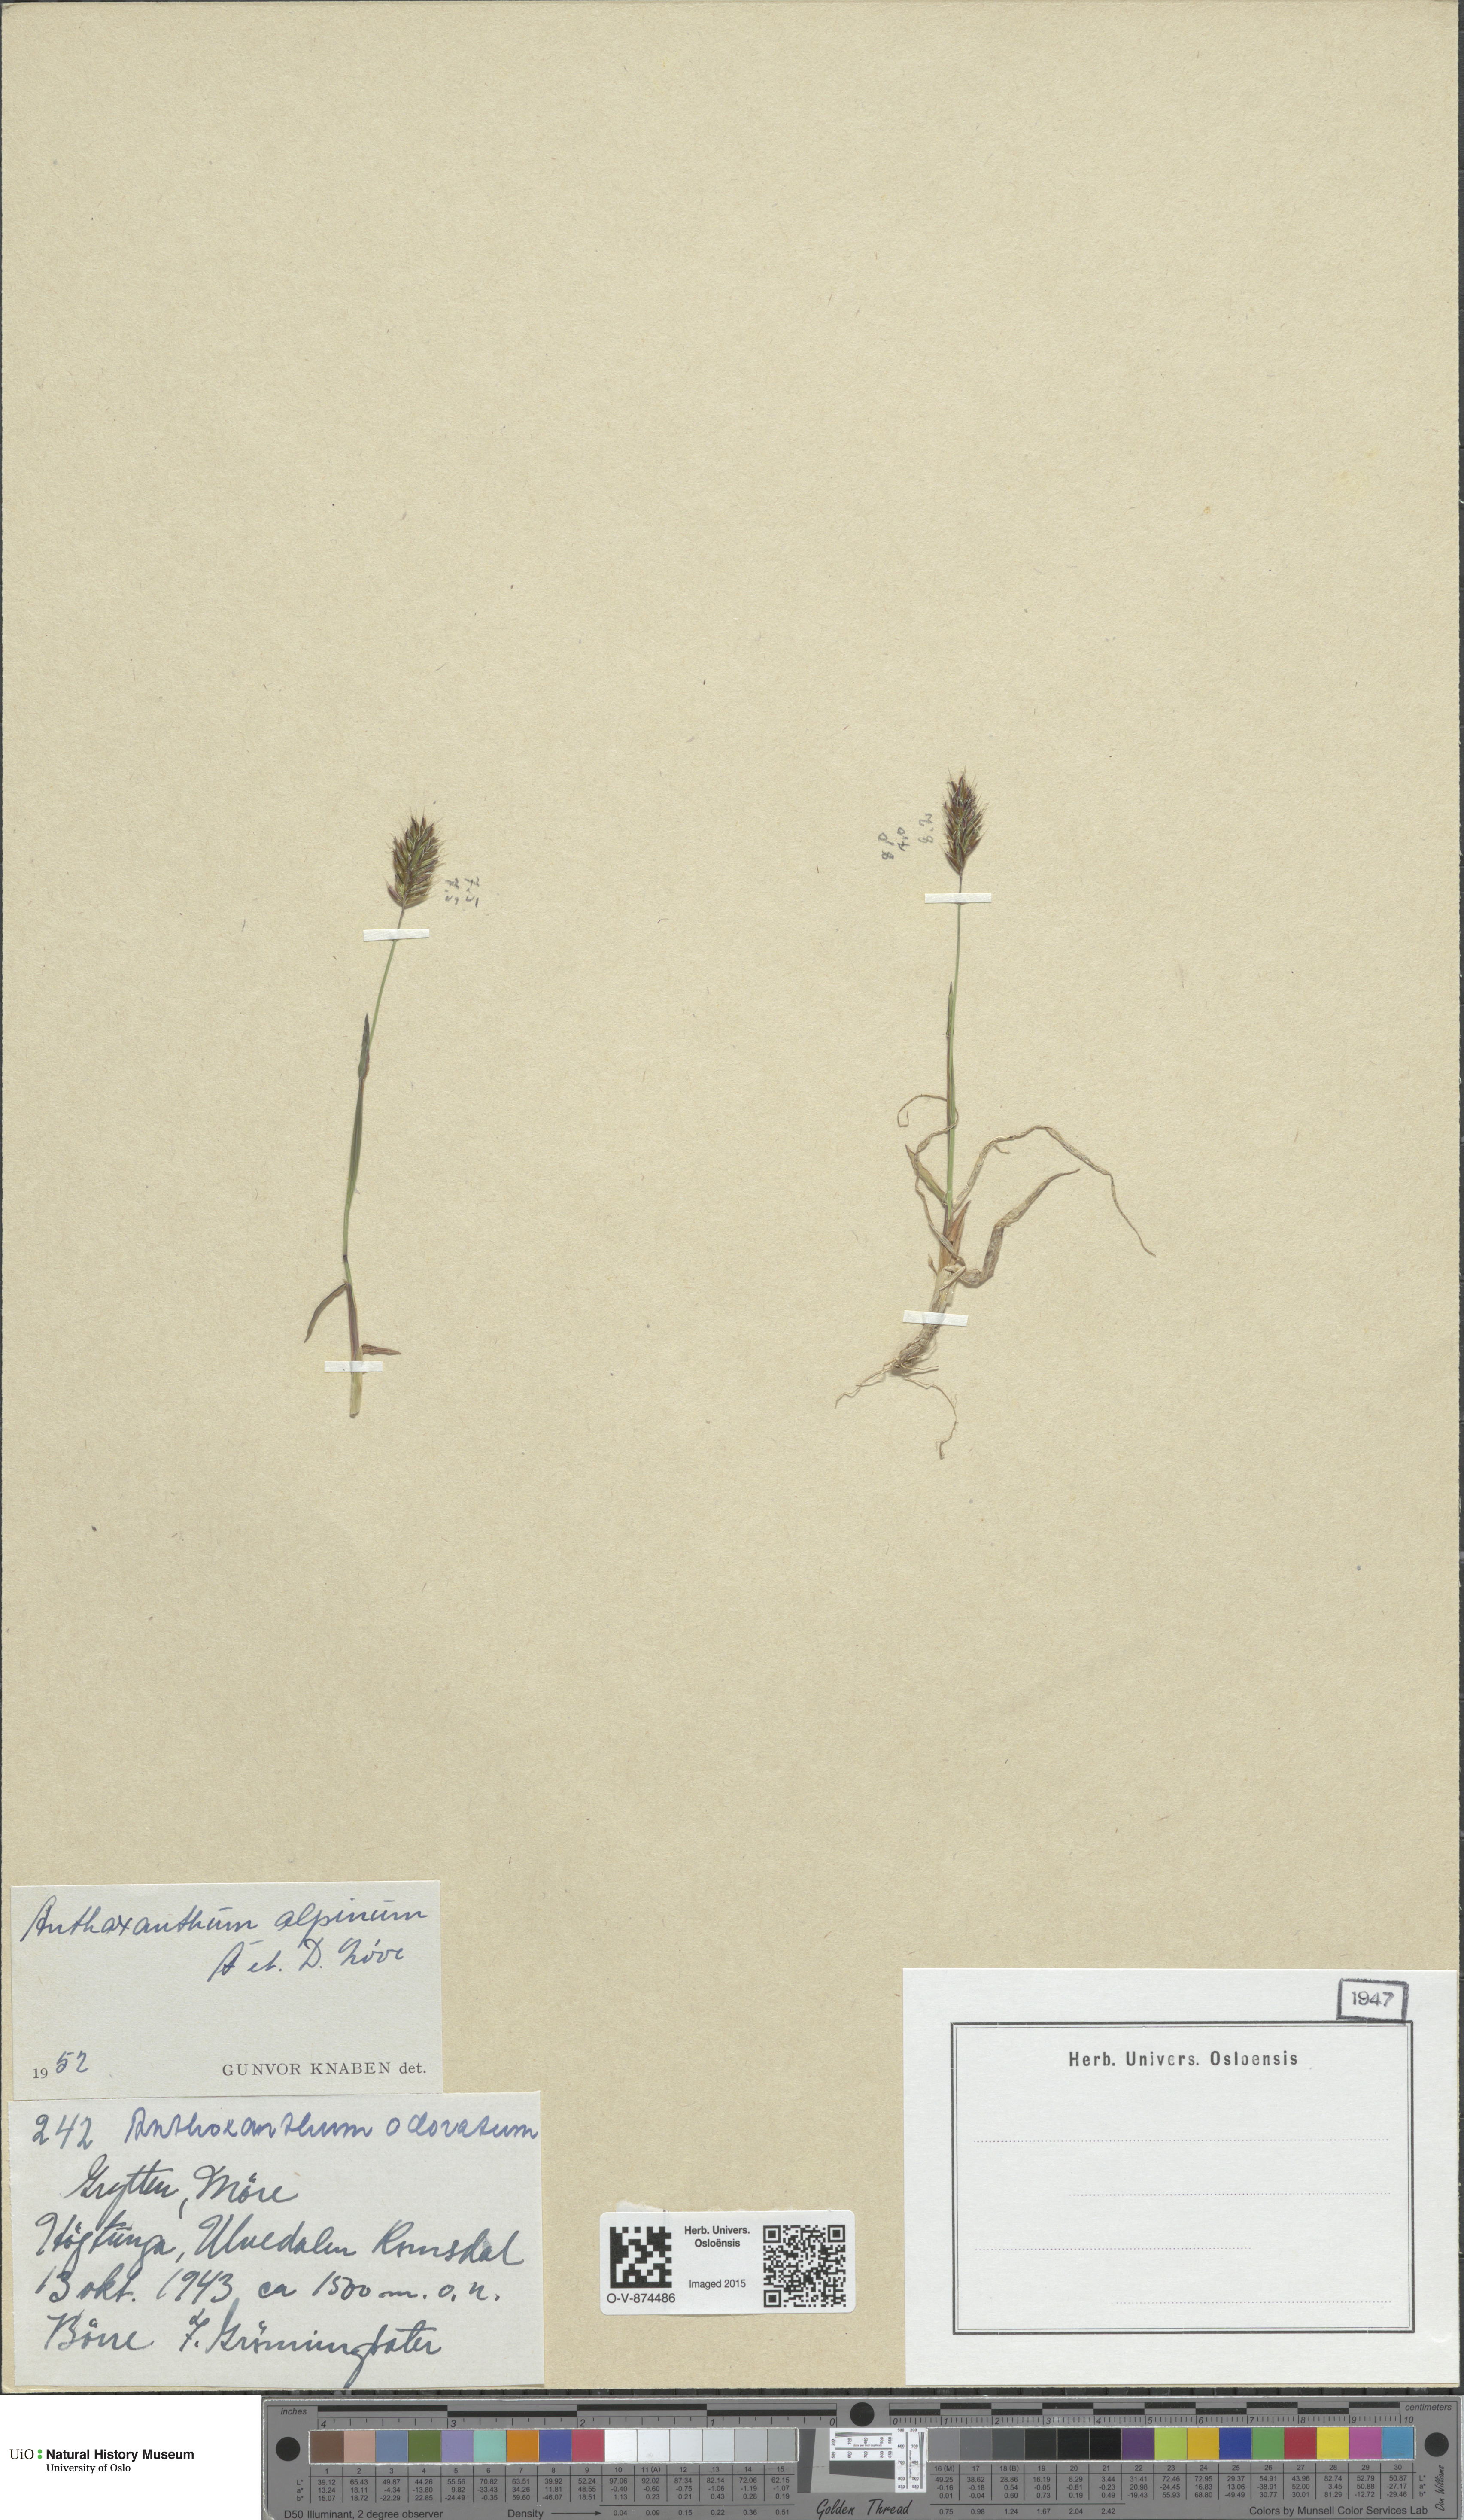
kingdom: Plantae
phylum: Tracheophyta
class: Liliopsida
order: Poales
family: Poaceae
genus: Anthoxanthum
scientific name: Anthoxanthum nipponicum
